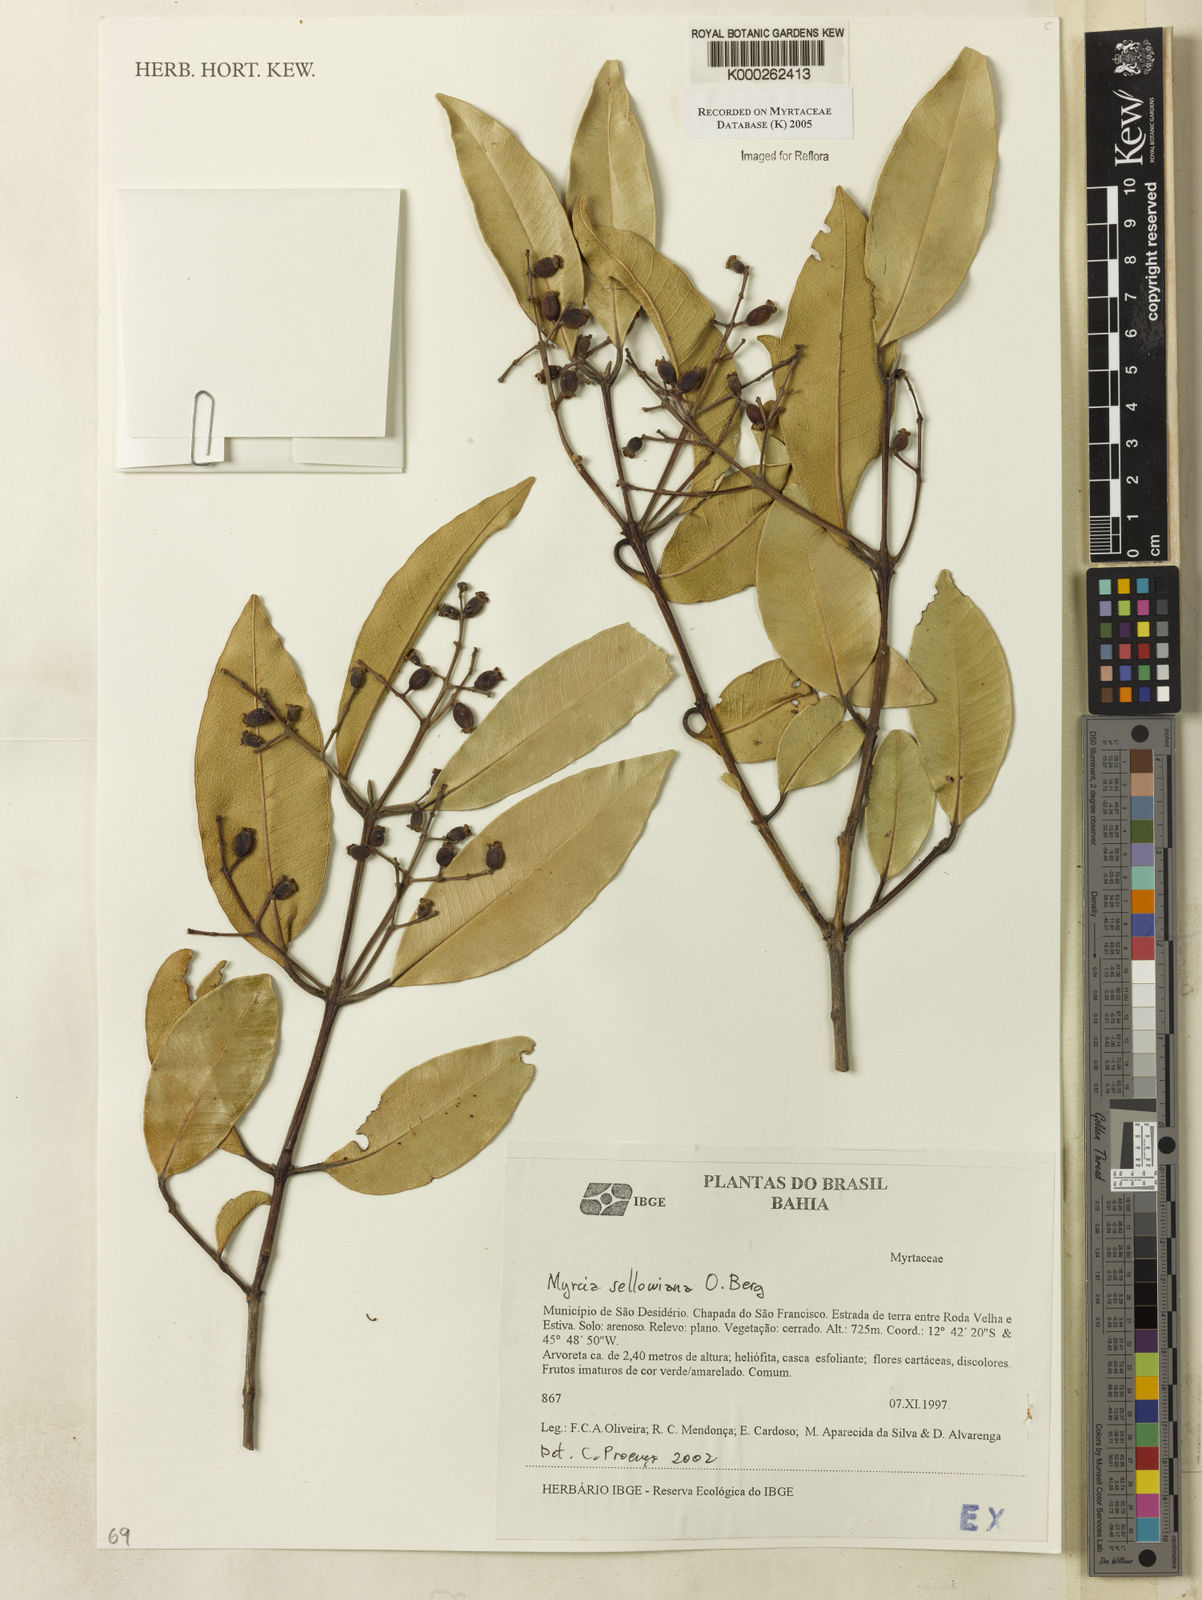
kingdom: Plantae
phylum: Tracheophyta
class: Magnoliopsida
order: Myrtales
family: Myrtaceae
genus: Myrcia
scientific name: Myrcia splendens
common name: Surinam cherry
